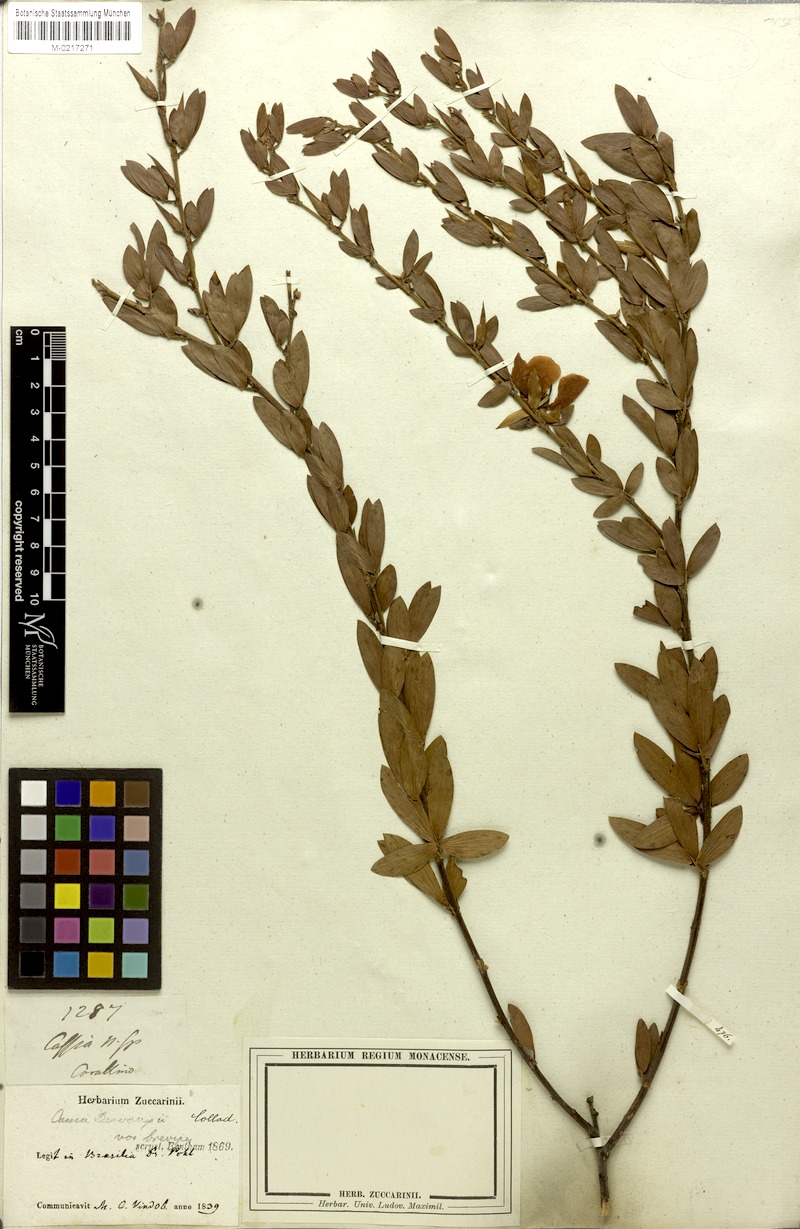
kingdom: Plantae
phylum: Tracheophyta
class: Magnoliopsida
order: Fabales
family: Fabaceae
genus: Chamaecrista
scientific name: Chamaecrista desvauxii
